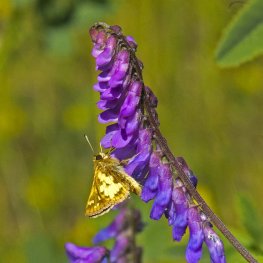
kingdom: Animalia
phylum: Arthropoda
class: Insecta
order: Lepidoptera
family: Hesperiidae
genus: Polites
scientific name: Polites coras
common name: Peck's Skipper
